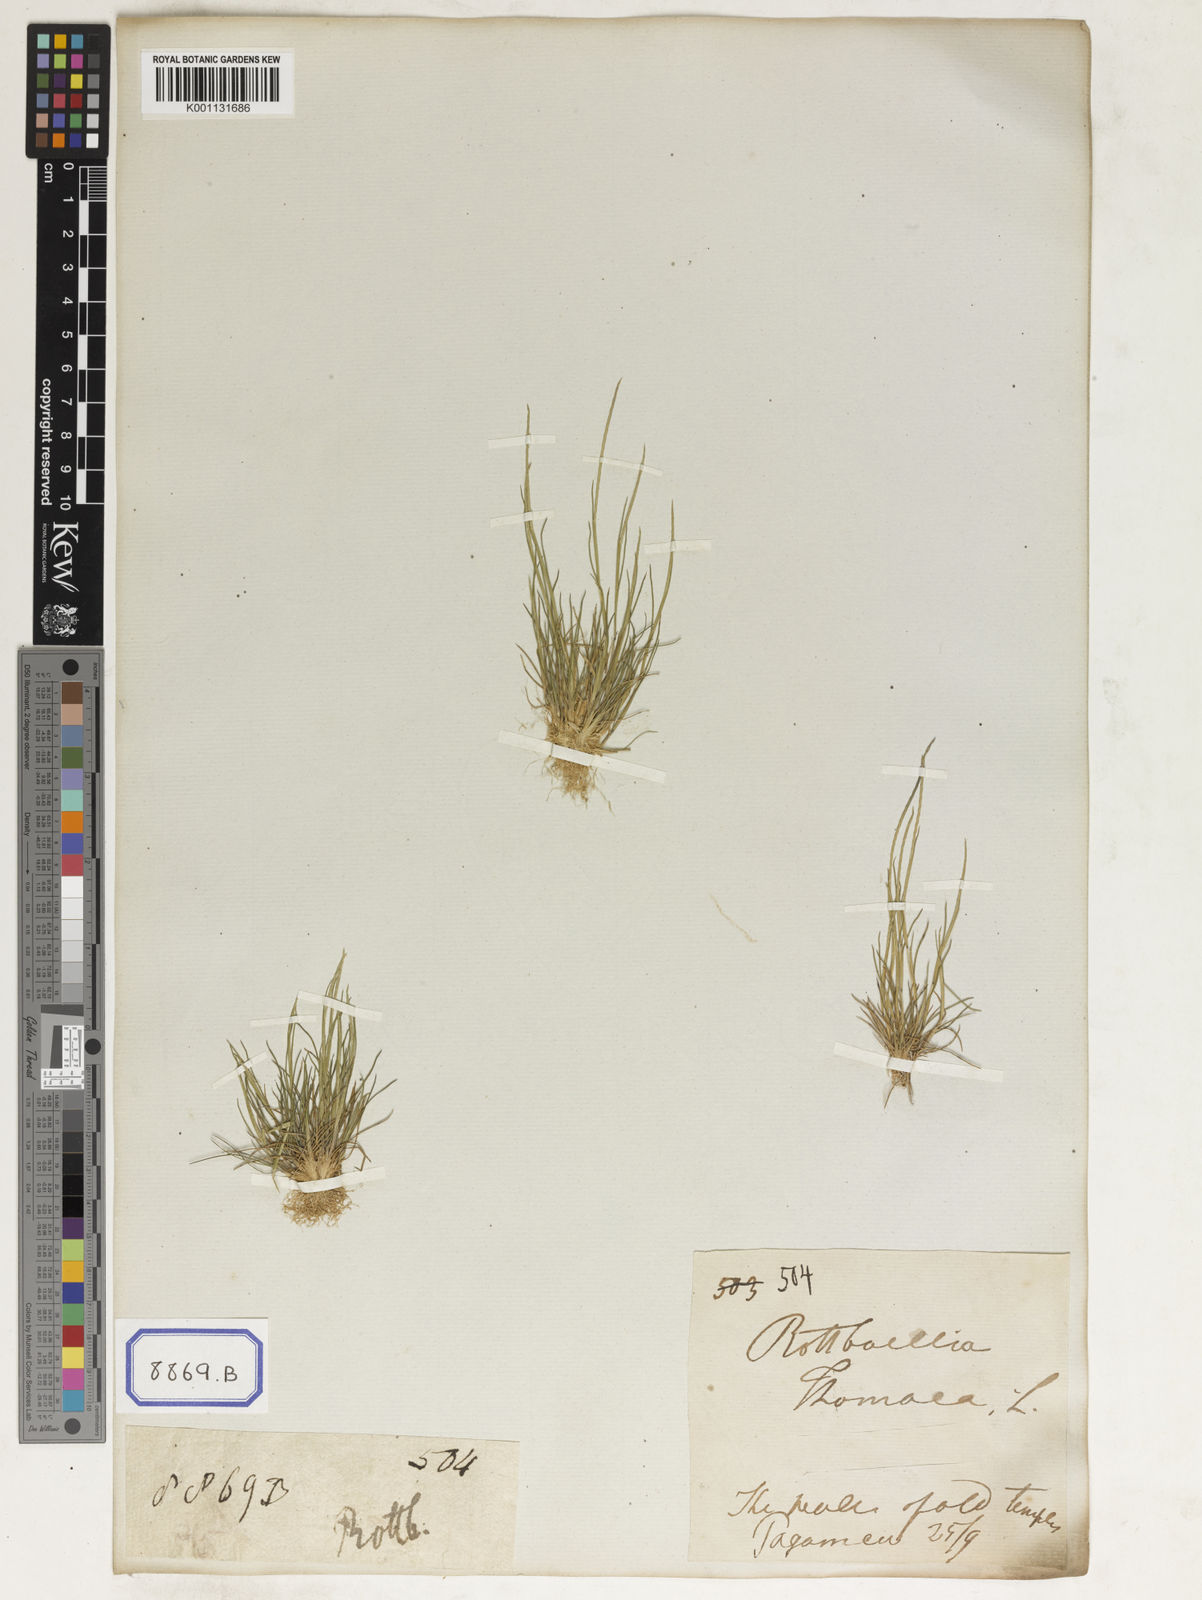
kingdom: Plantae
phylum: Tracheophyta
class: Liliopsida
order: Poales
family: Poaceae
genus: Oropetium
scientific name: Oropetium thomaeum
